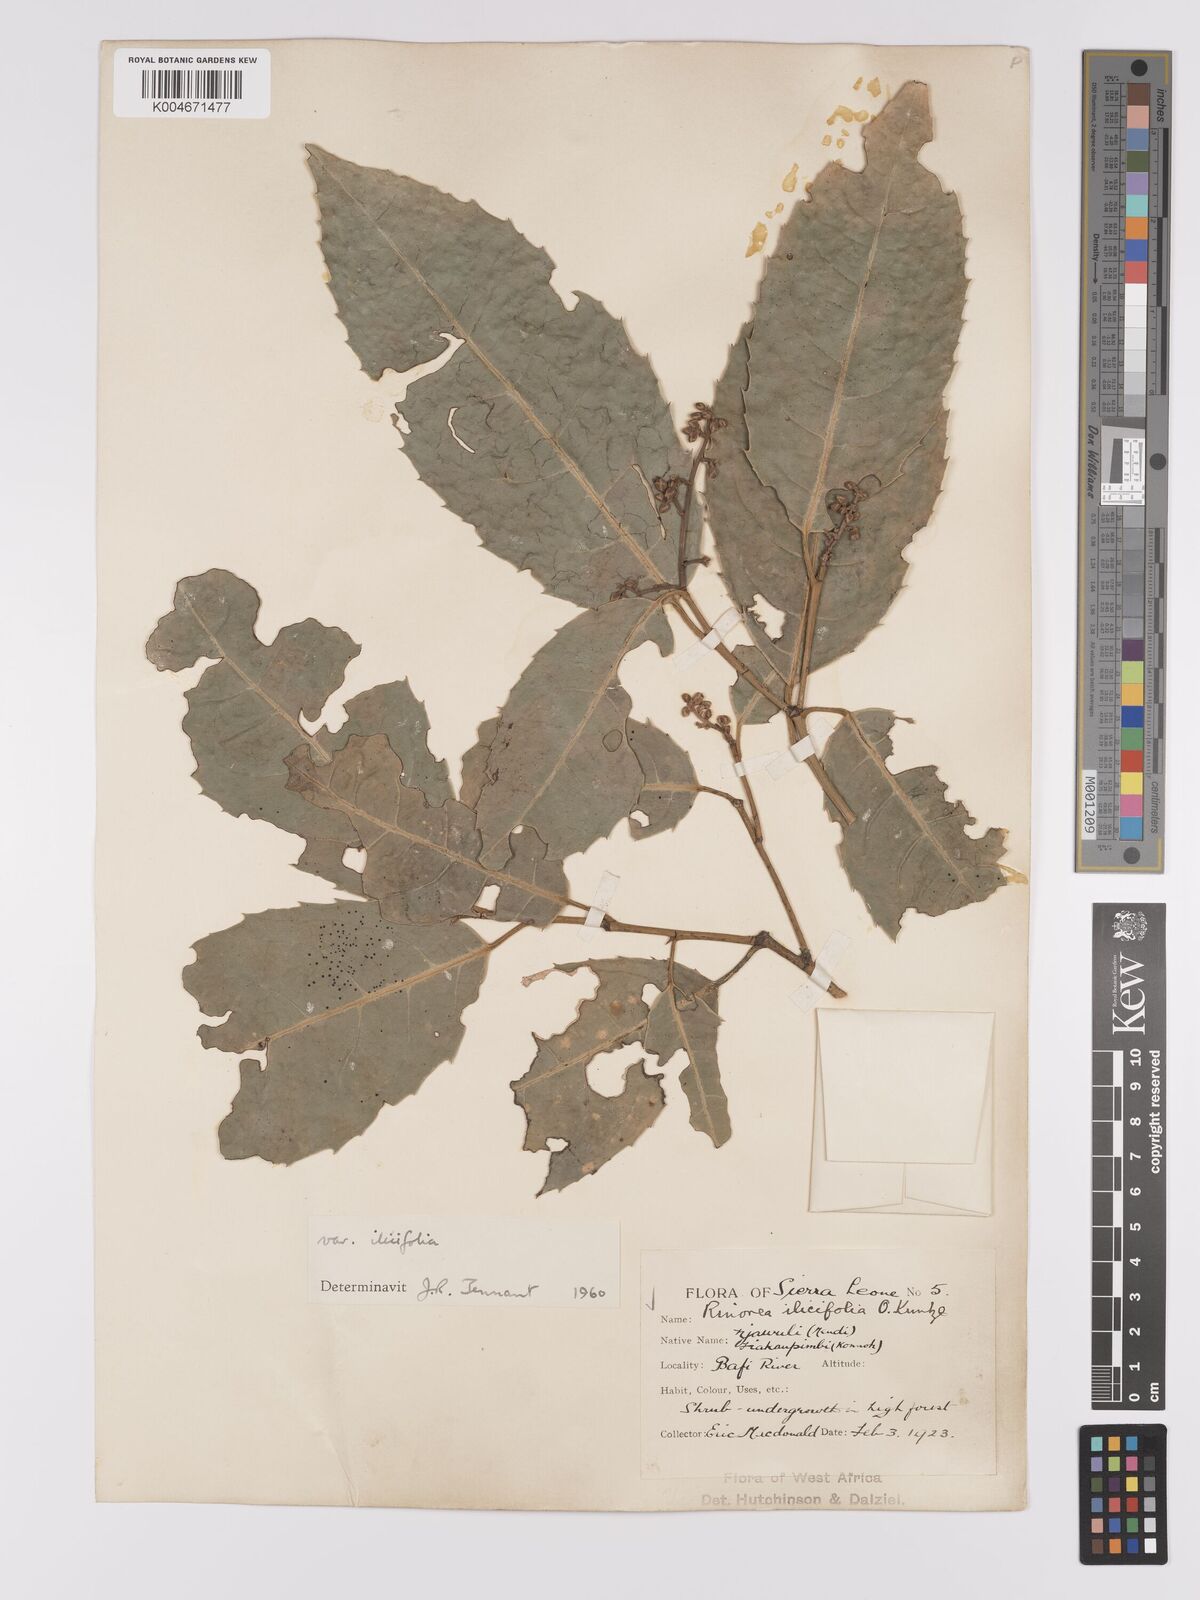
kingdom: Plantae
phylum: Tracheophyta
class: Magnoliopsida
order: Malpighiales
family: Violaceae
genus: Rinorea
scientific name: Rinorea ilicifolia
